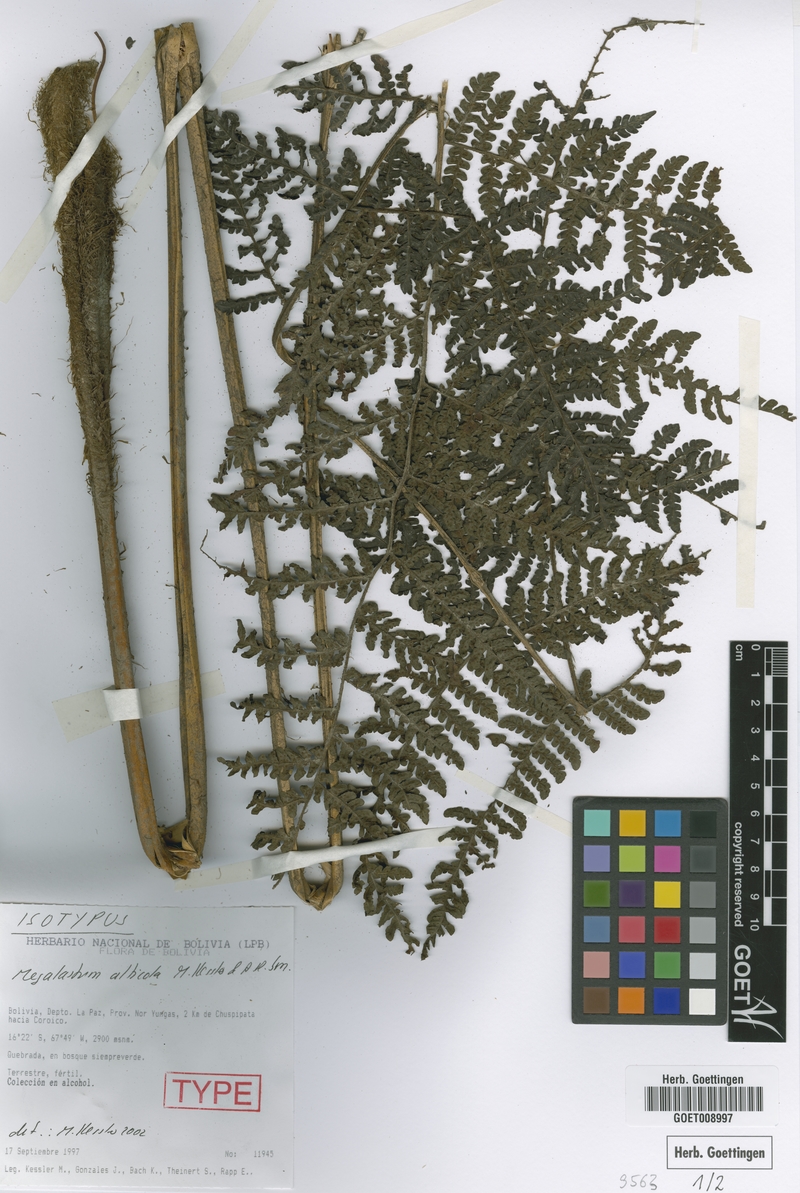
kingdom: Plantae
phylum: Tracheophyta
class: Polypodiopsida
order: Polypodiales
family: Dryopteridaceae
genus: Megalastrum
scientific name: Megalastrum alticola
